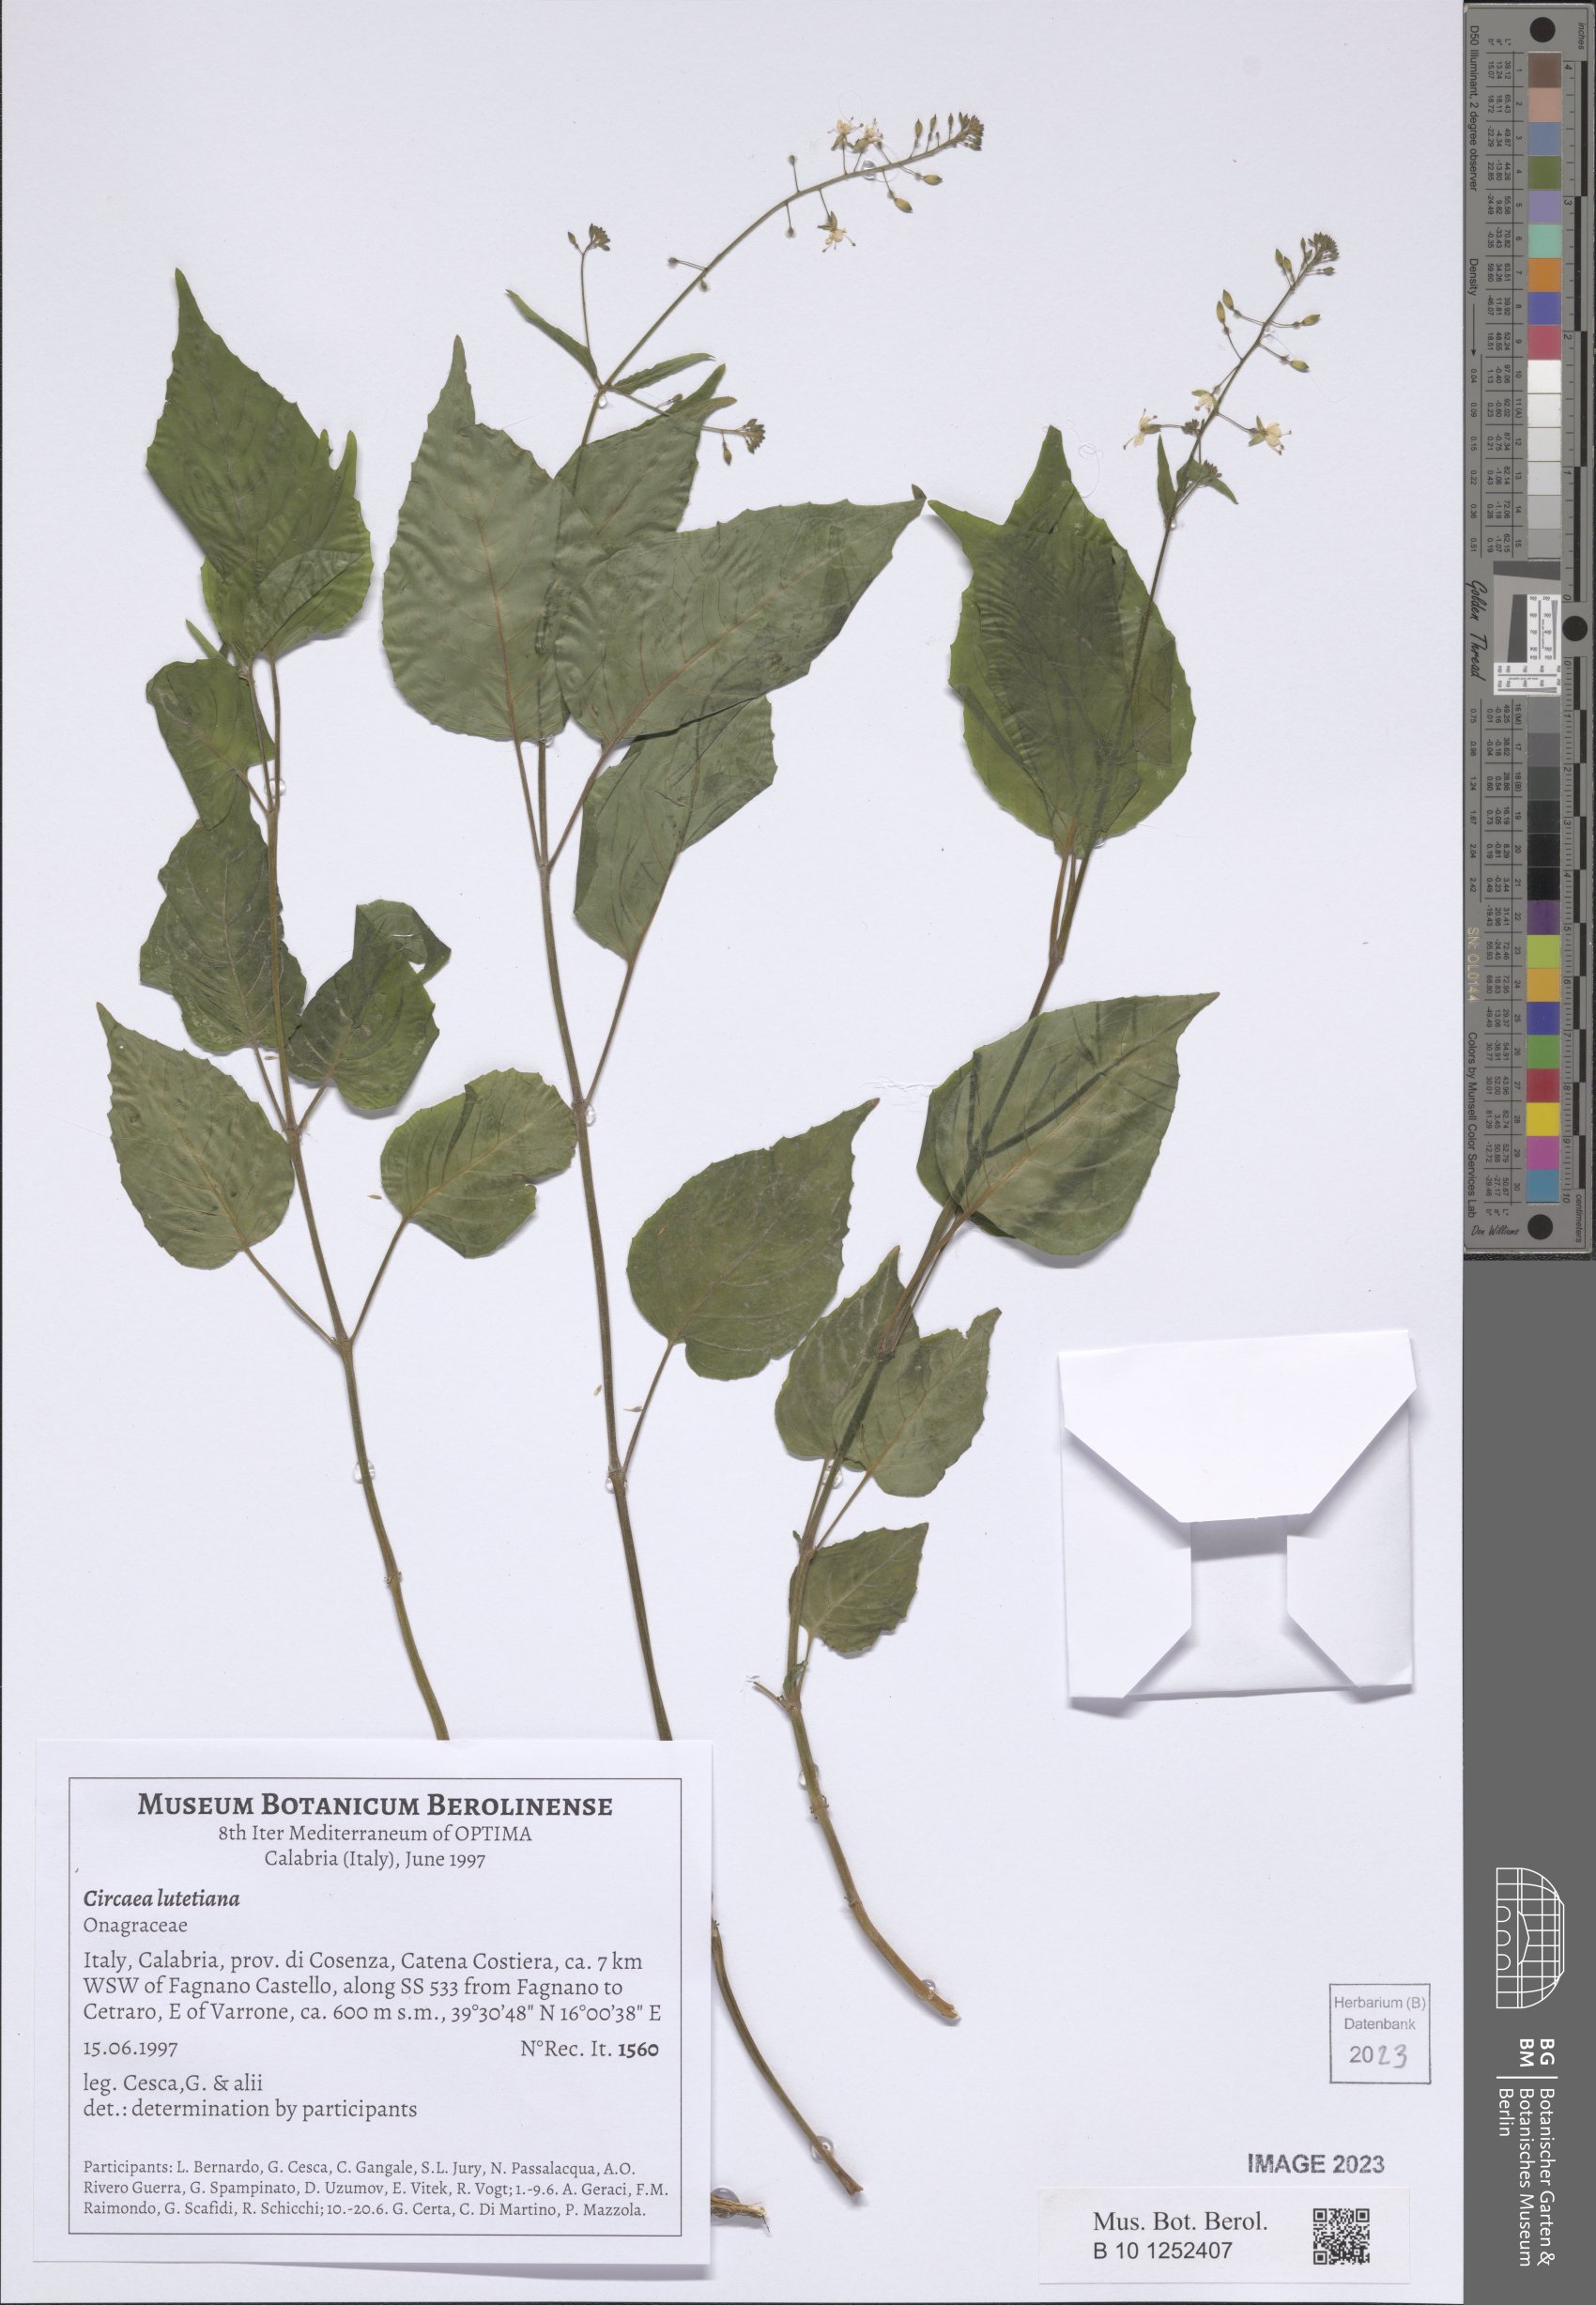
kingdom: Plantae
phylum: Tracheophyta
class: Magnoliopsida
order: Myrtales
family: Onagraceae
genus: Circaea
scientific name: Circaea lutetiana
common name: Enchanter's-nightshade
